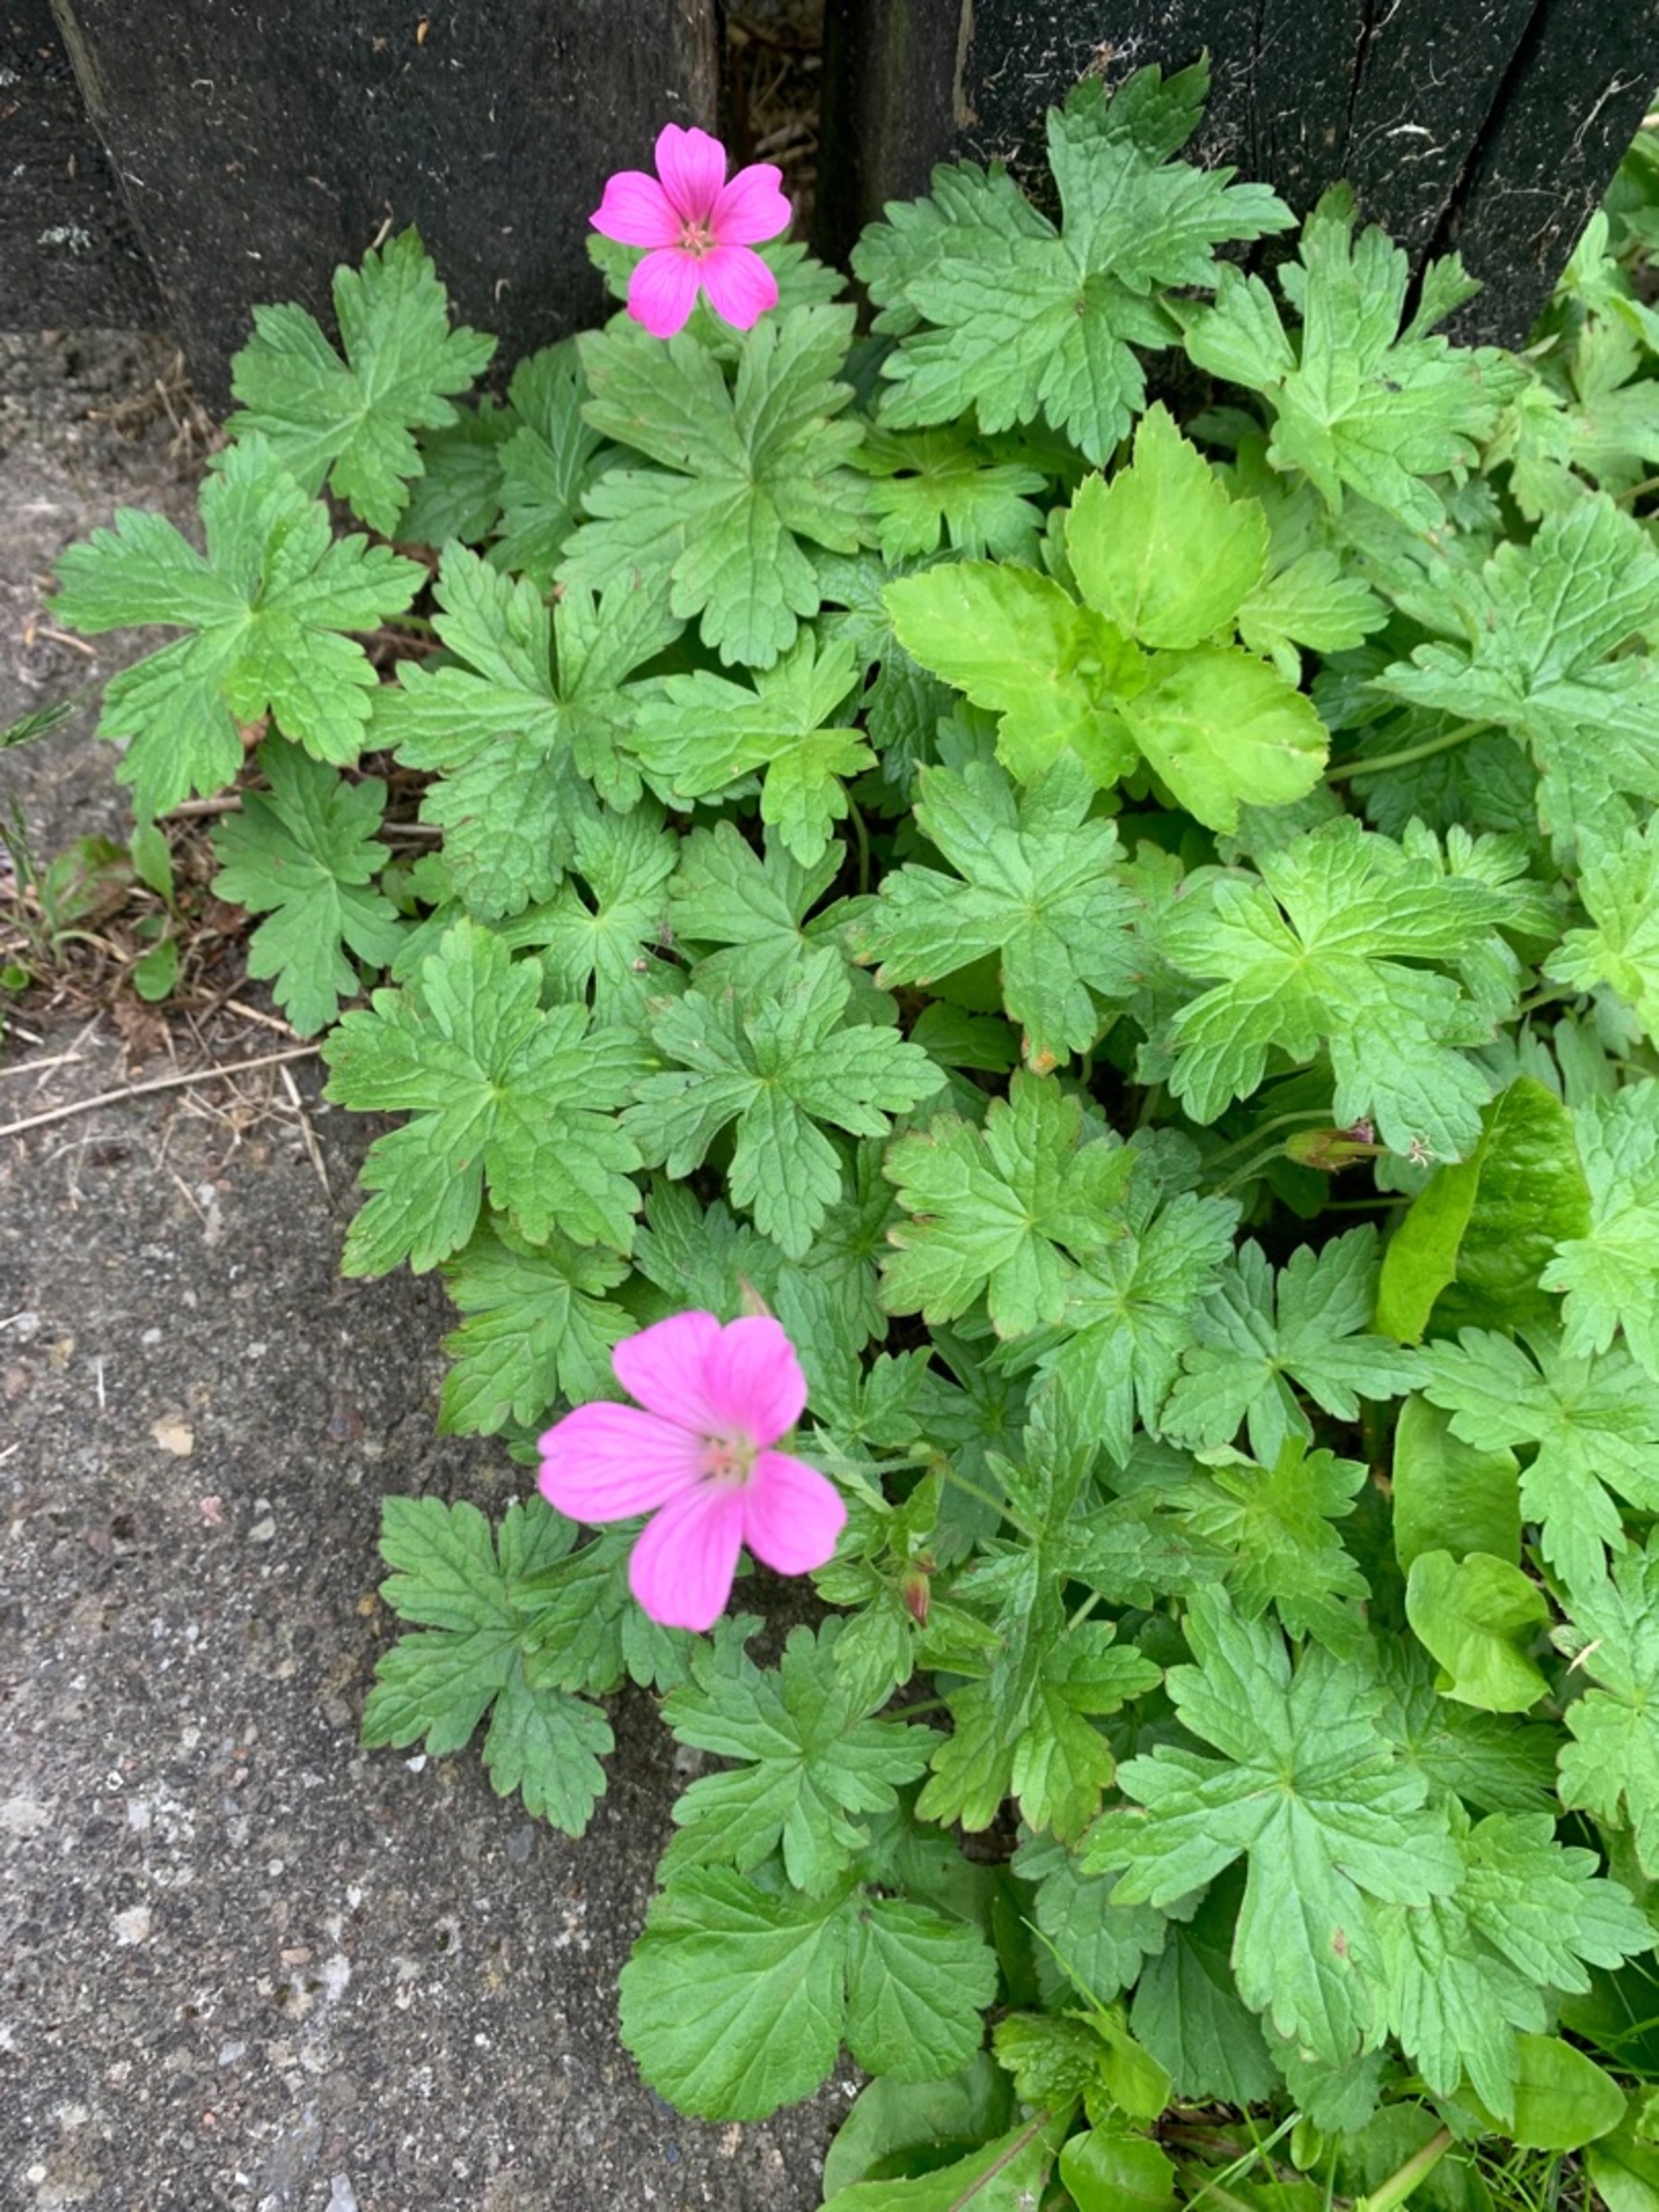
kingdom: Plantae
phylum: Tracheophyta
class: Magnoliopsida
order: Geraniales
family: Geraniaceae
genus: Geranium
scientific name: Geranium endressii
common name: Spansk storkenæb
